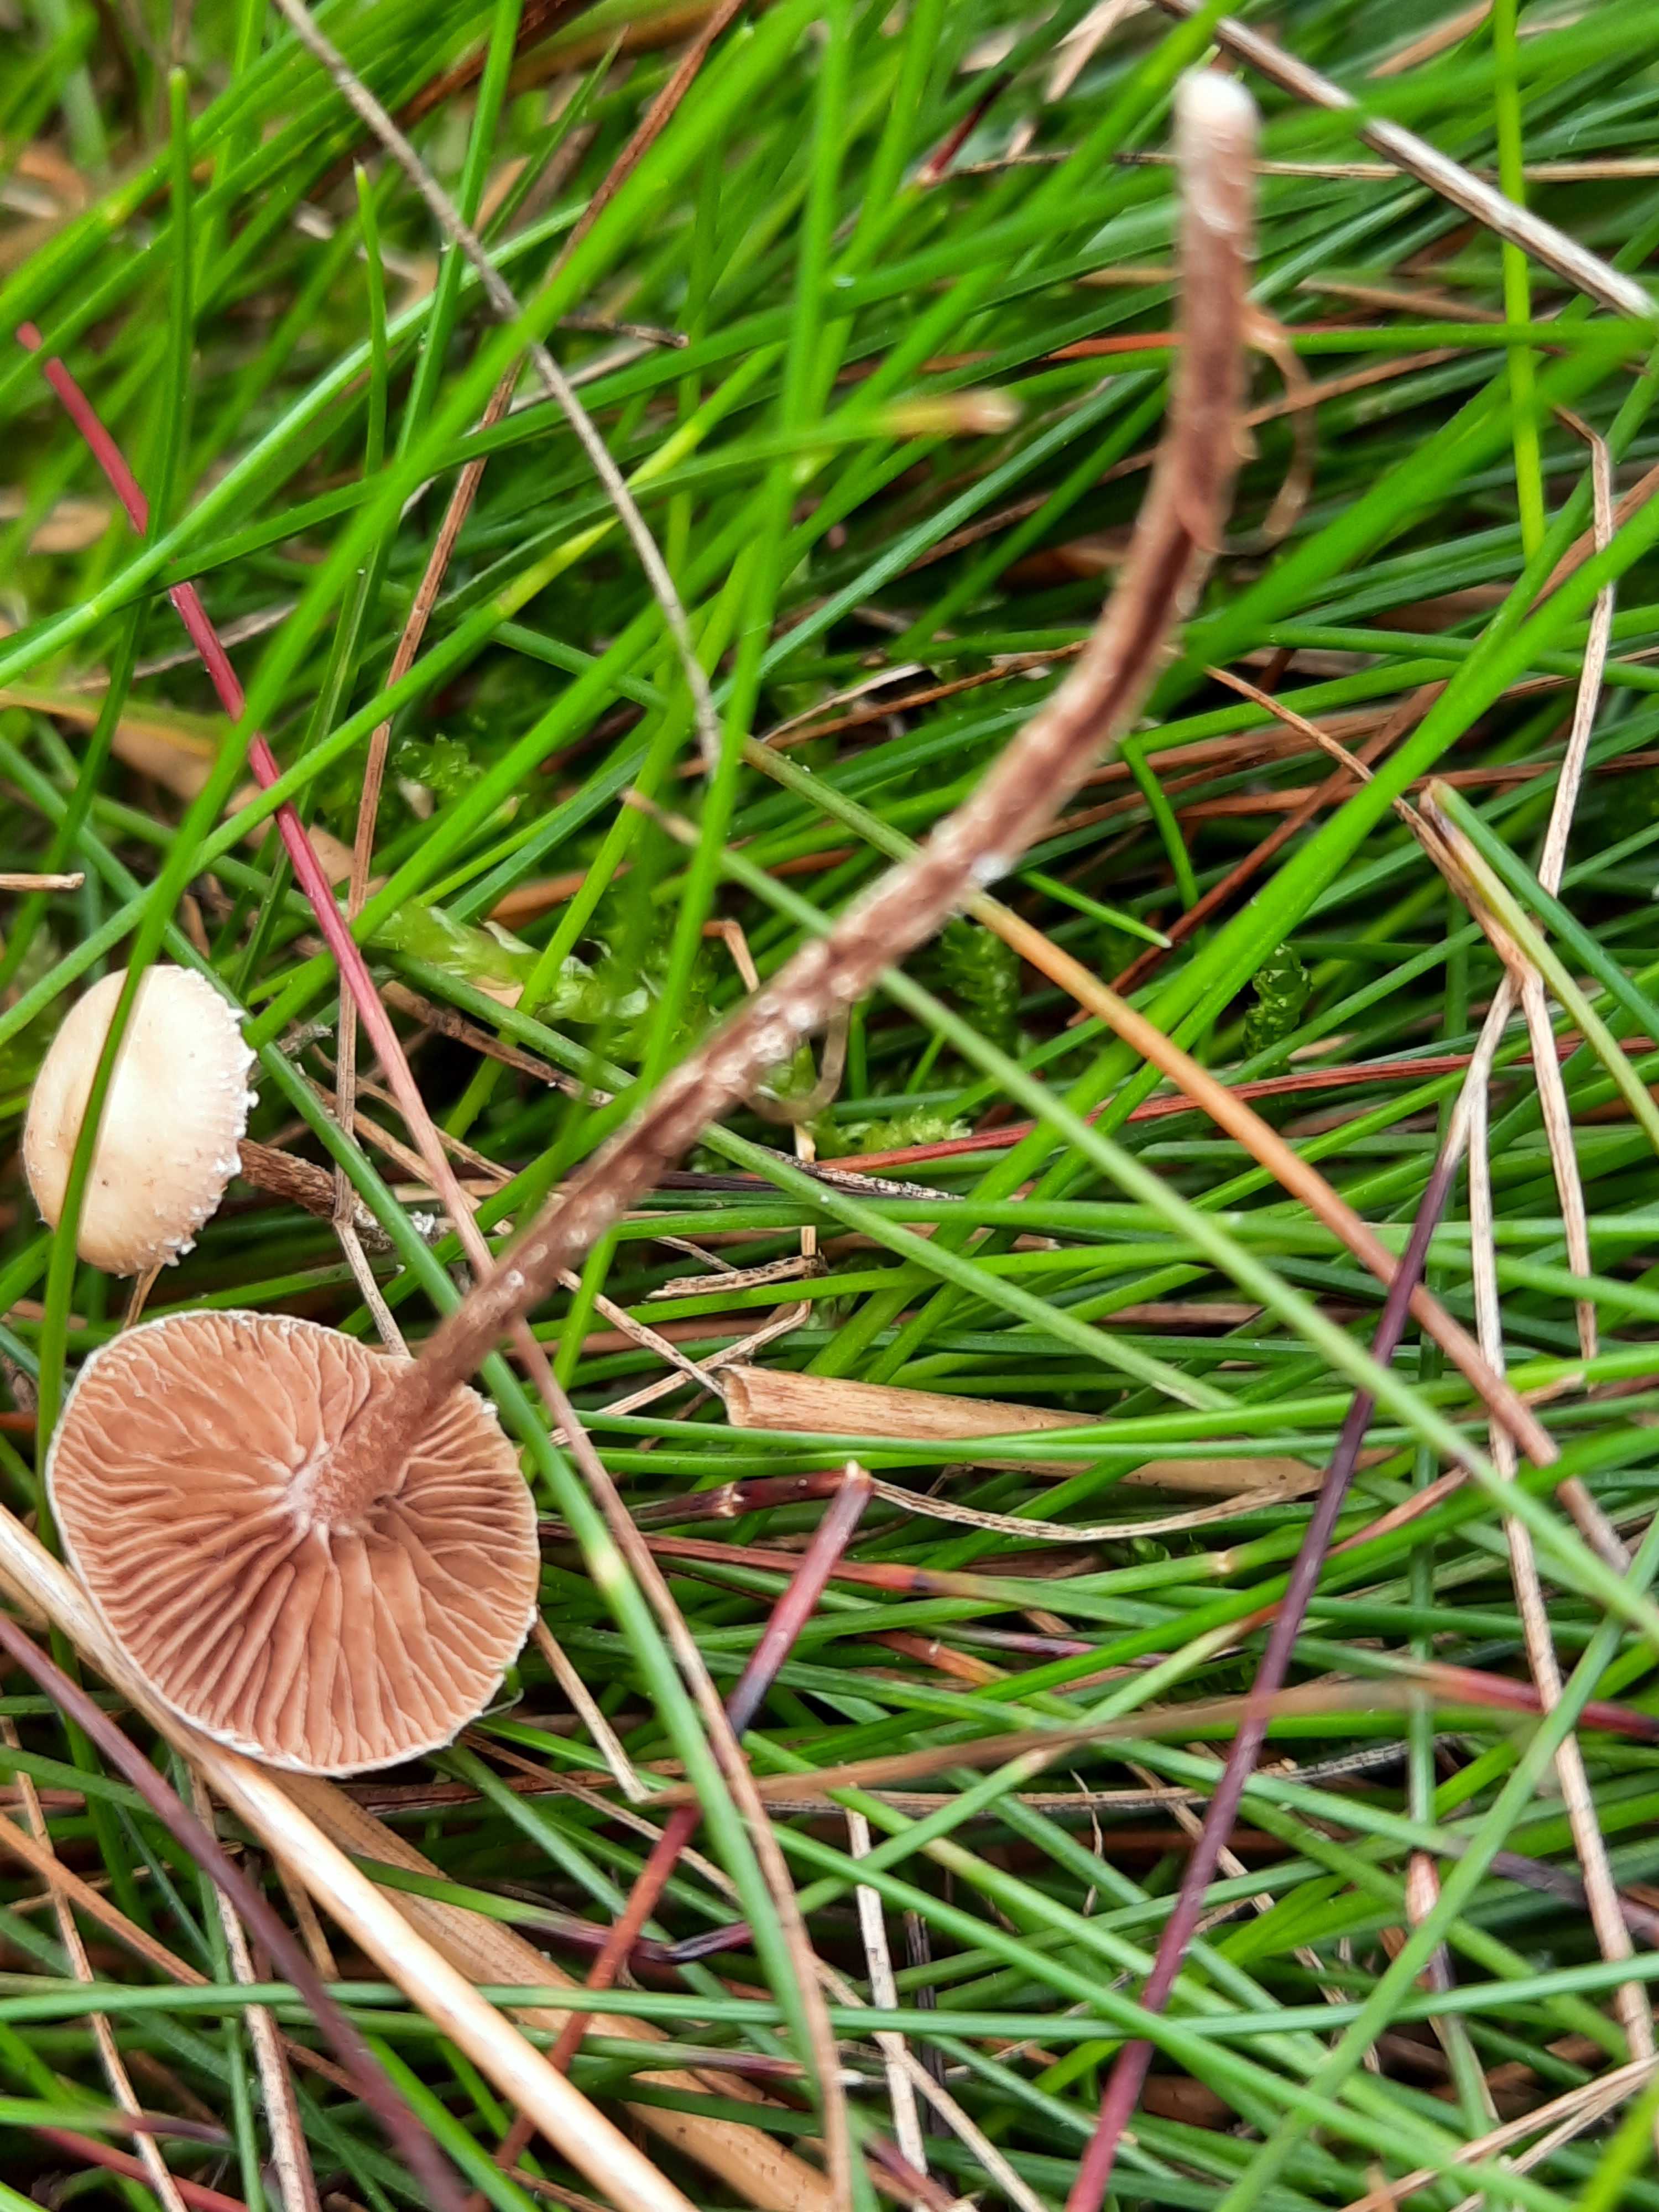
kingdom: Fungi
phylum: Basidiomycota
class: Agaricomycetes
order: Agaricales
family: Strophariaceae
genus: Deconica
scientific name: Deconica
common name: stråhat
